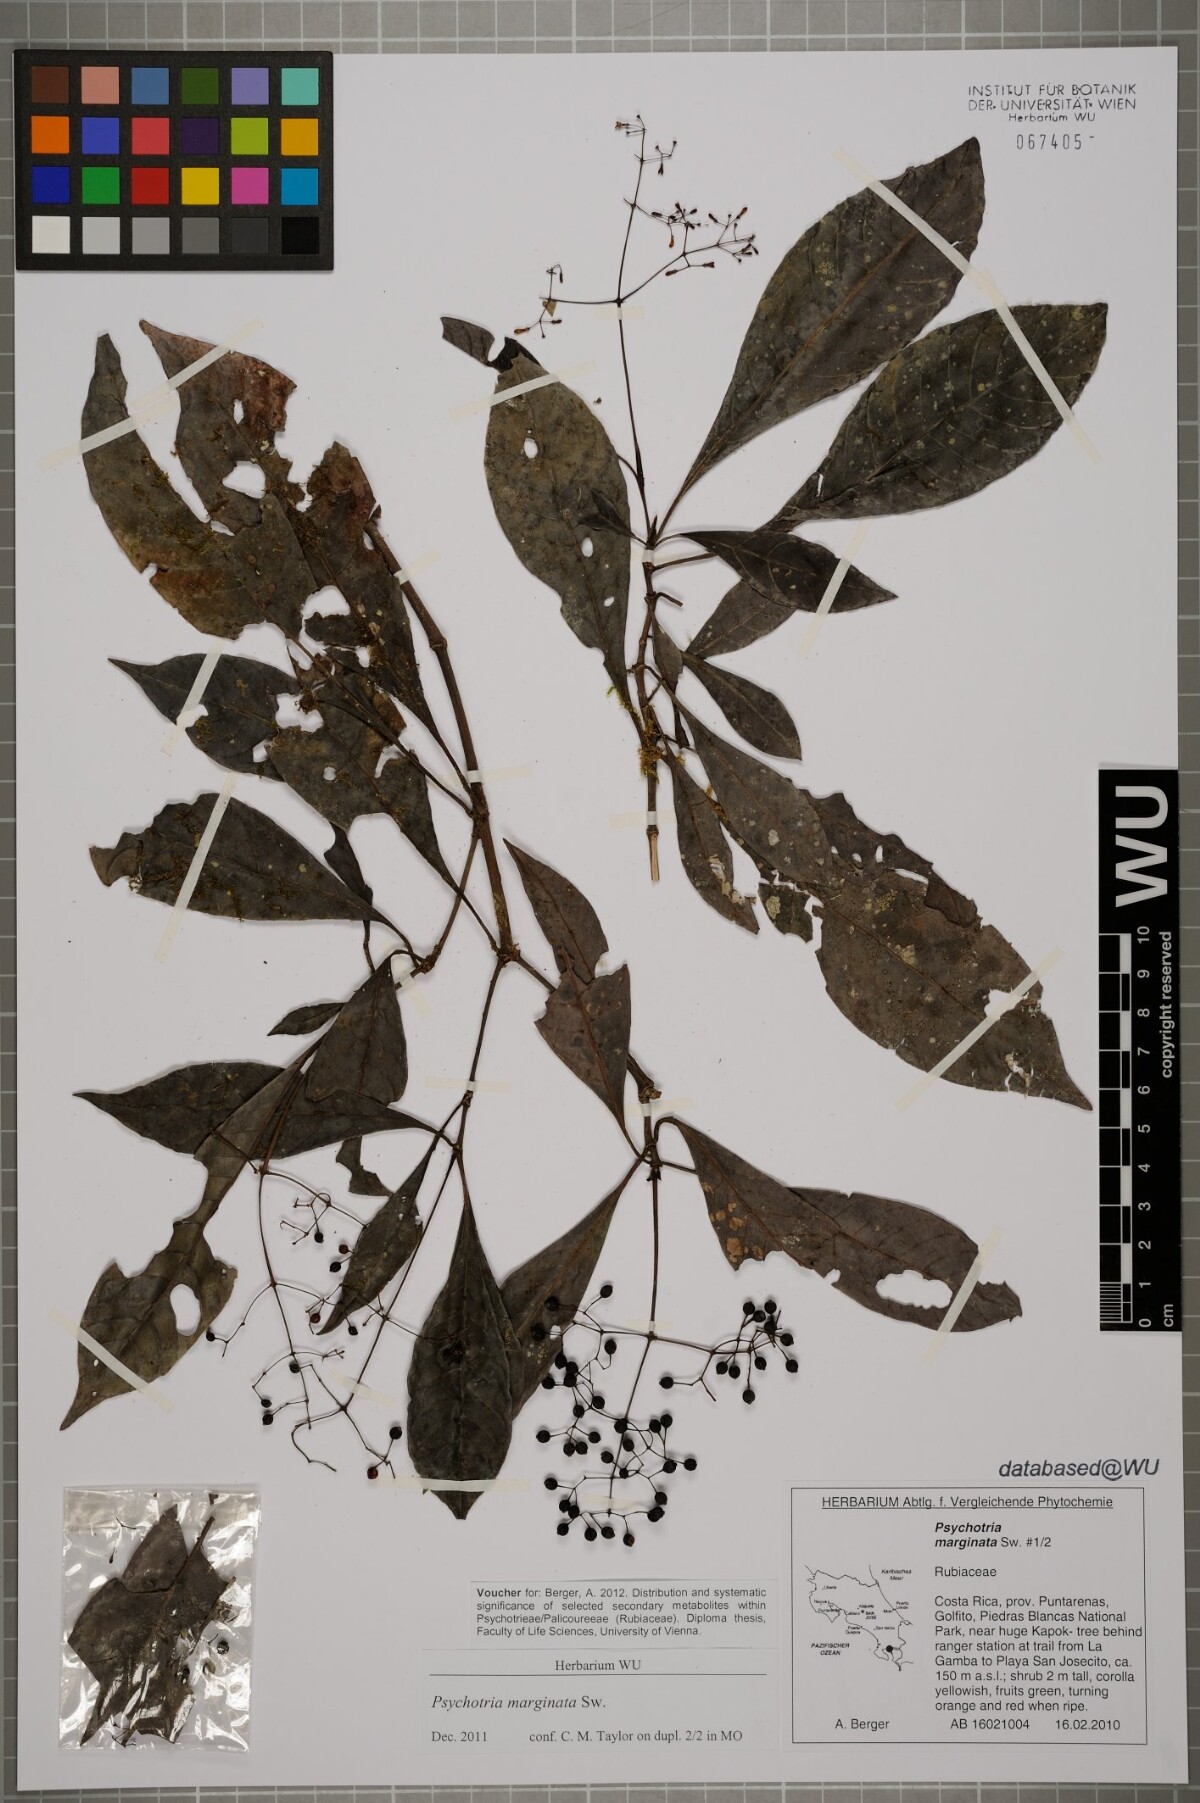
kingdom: Plantae
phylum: Tracheophyta
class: Magnoliopsida
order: Gentianales
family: Rubiaceae
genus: Psychotria
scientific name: Psychotria marginata
